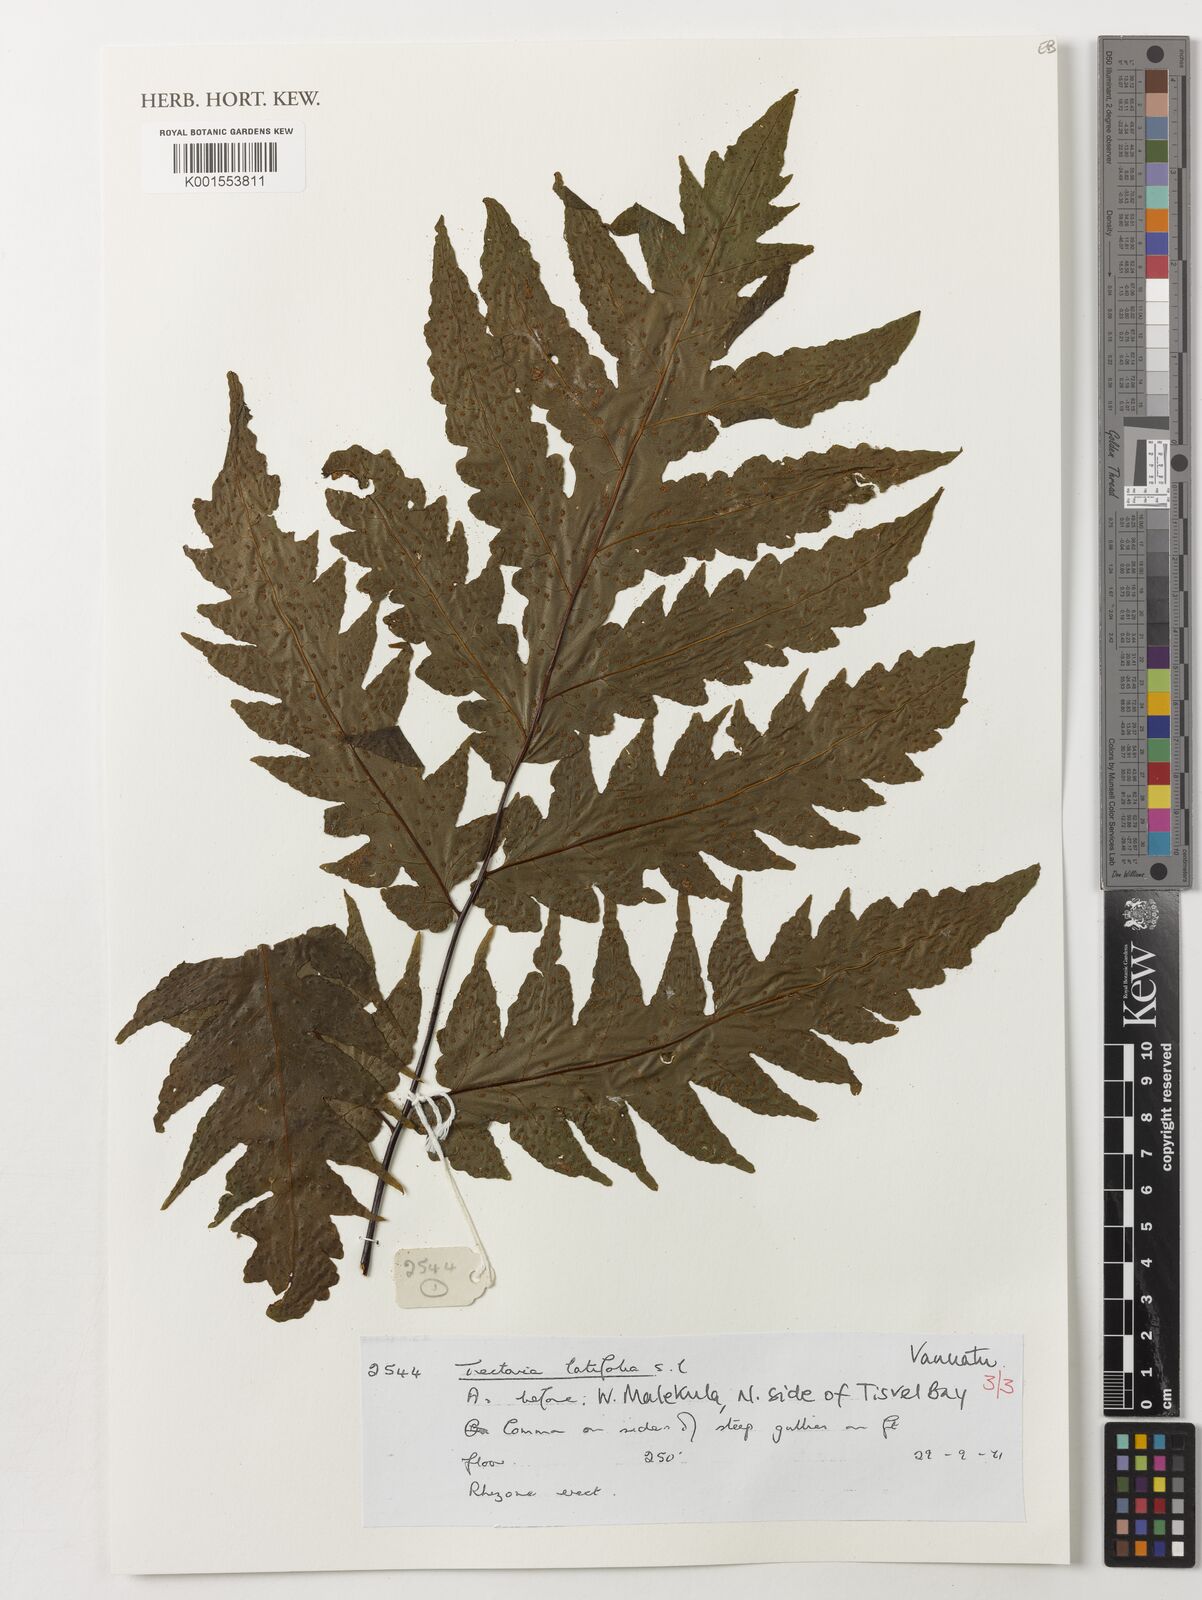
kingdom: Plantae
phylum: Tracheophyta
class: Polypodiopsida
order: Polypodiales
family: Tectariaceae
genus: Tectaria
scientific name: Tectaria
